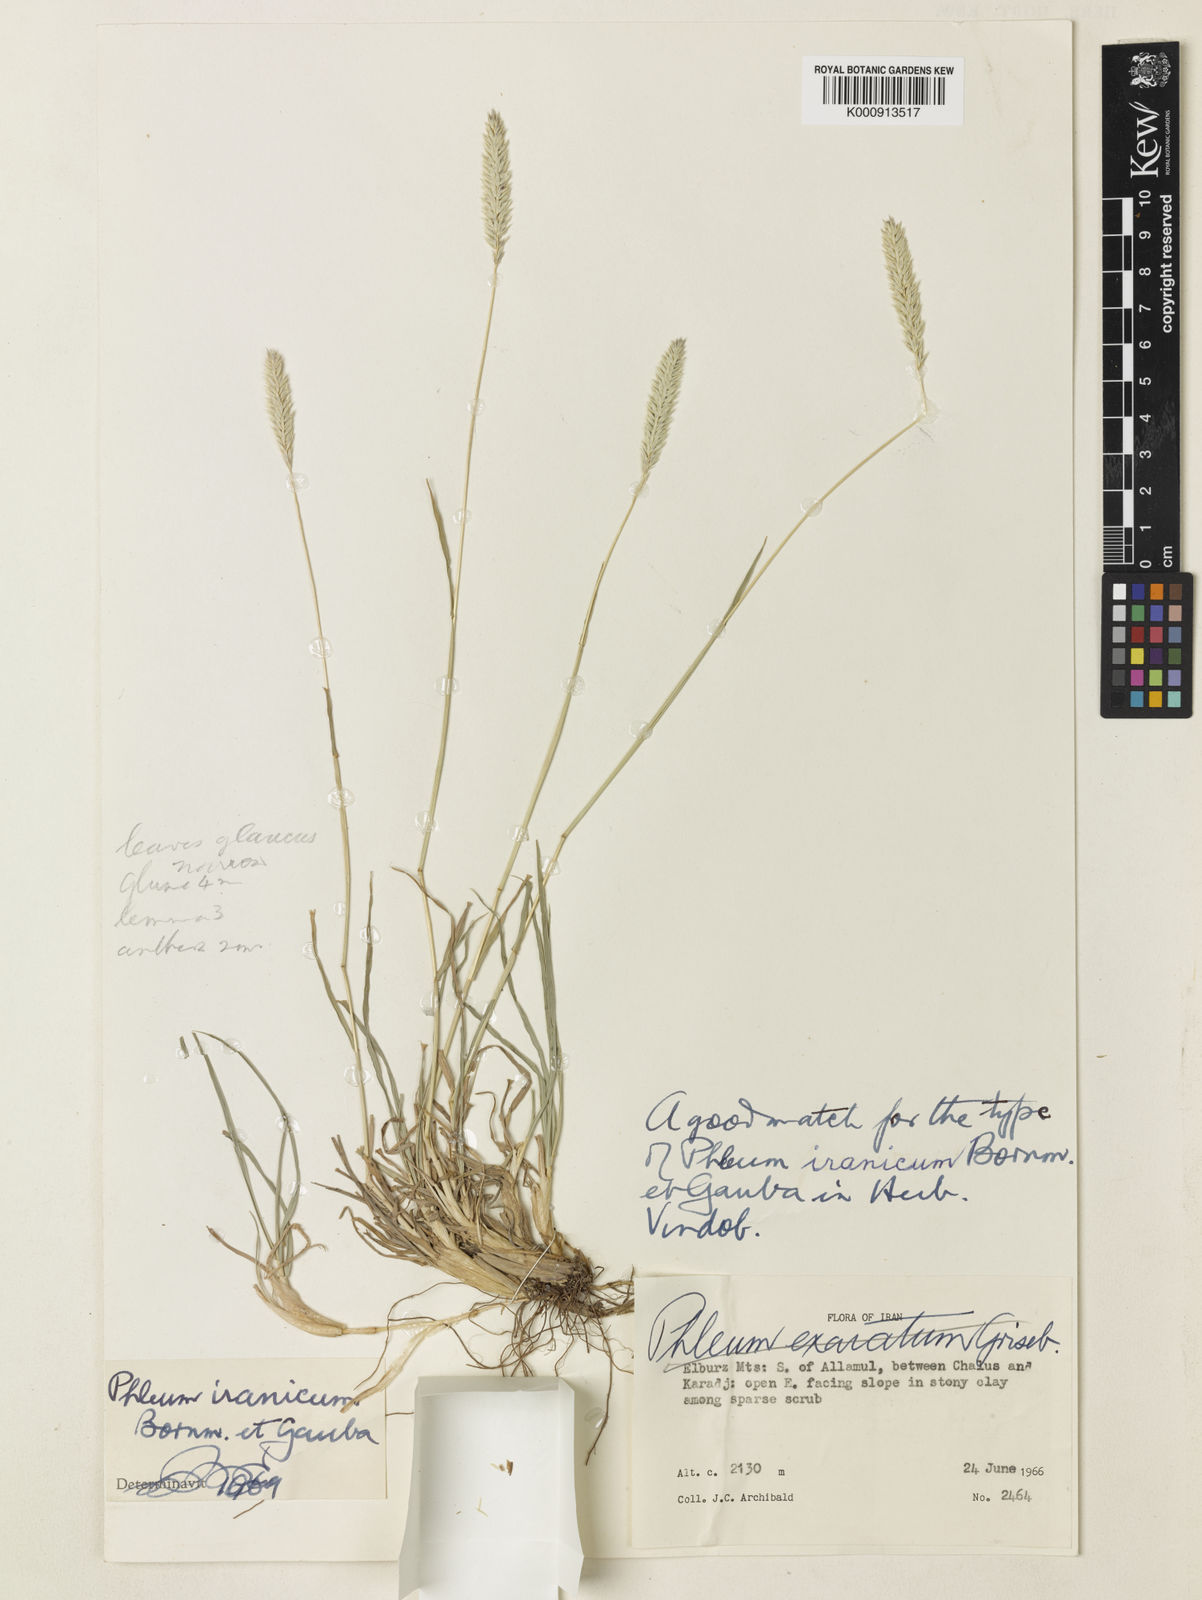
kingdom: Plantae
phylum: Tracheophyta
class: Liliopsida
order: Poales
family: Poaceae
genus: Phleum
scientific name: Phleum iranicum
